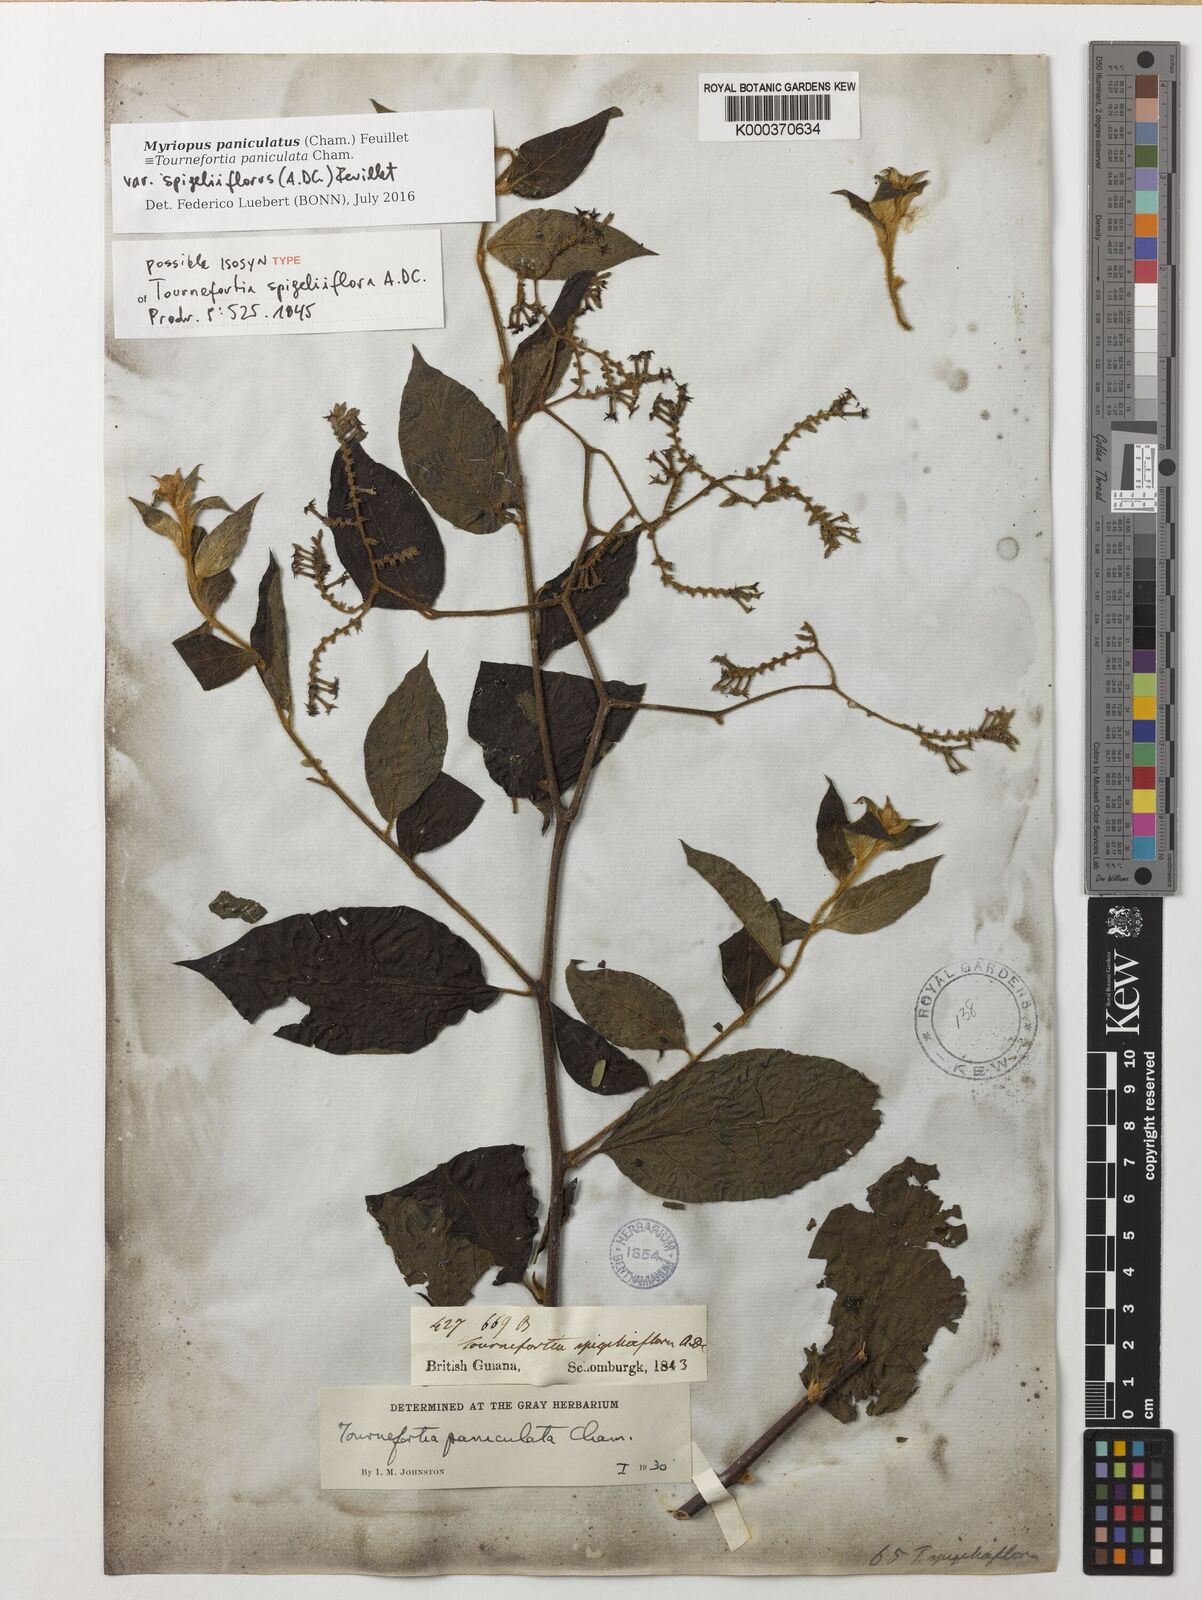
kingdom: Plantae
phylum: Tracheophyta
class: Magnoliopsida
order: Boraginales
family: Heliotropiaceae
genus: Myriopus
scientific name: Myriopus paniculatus
